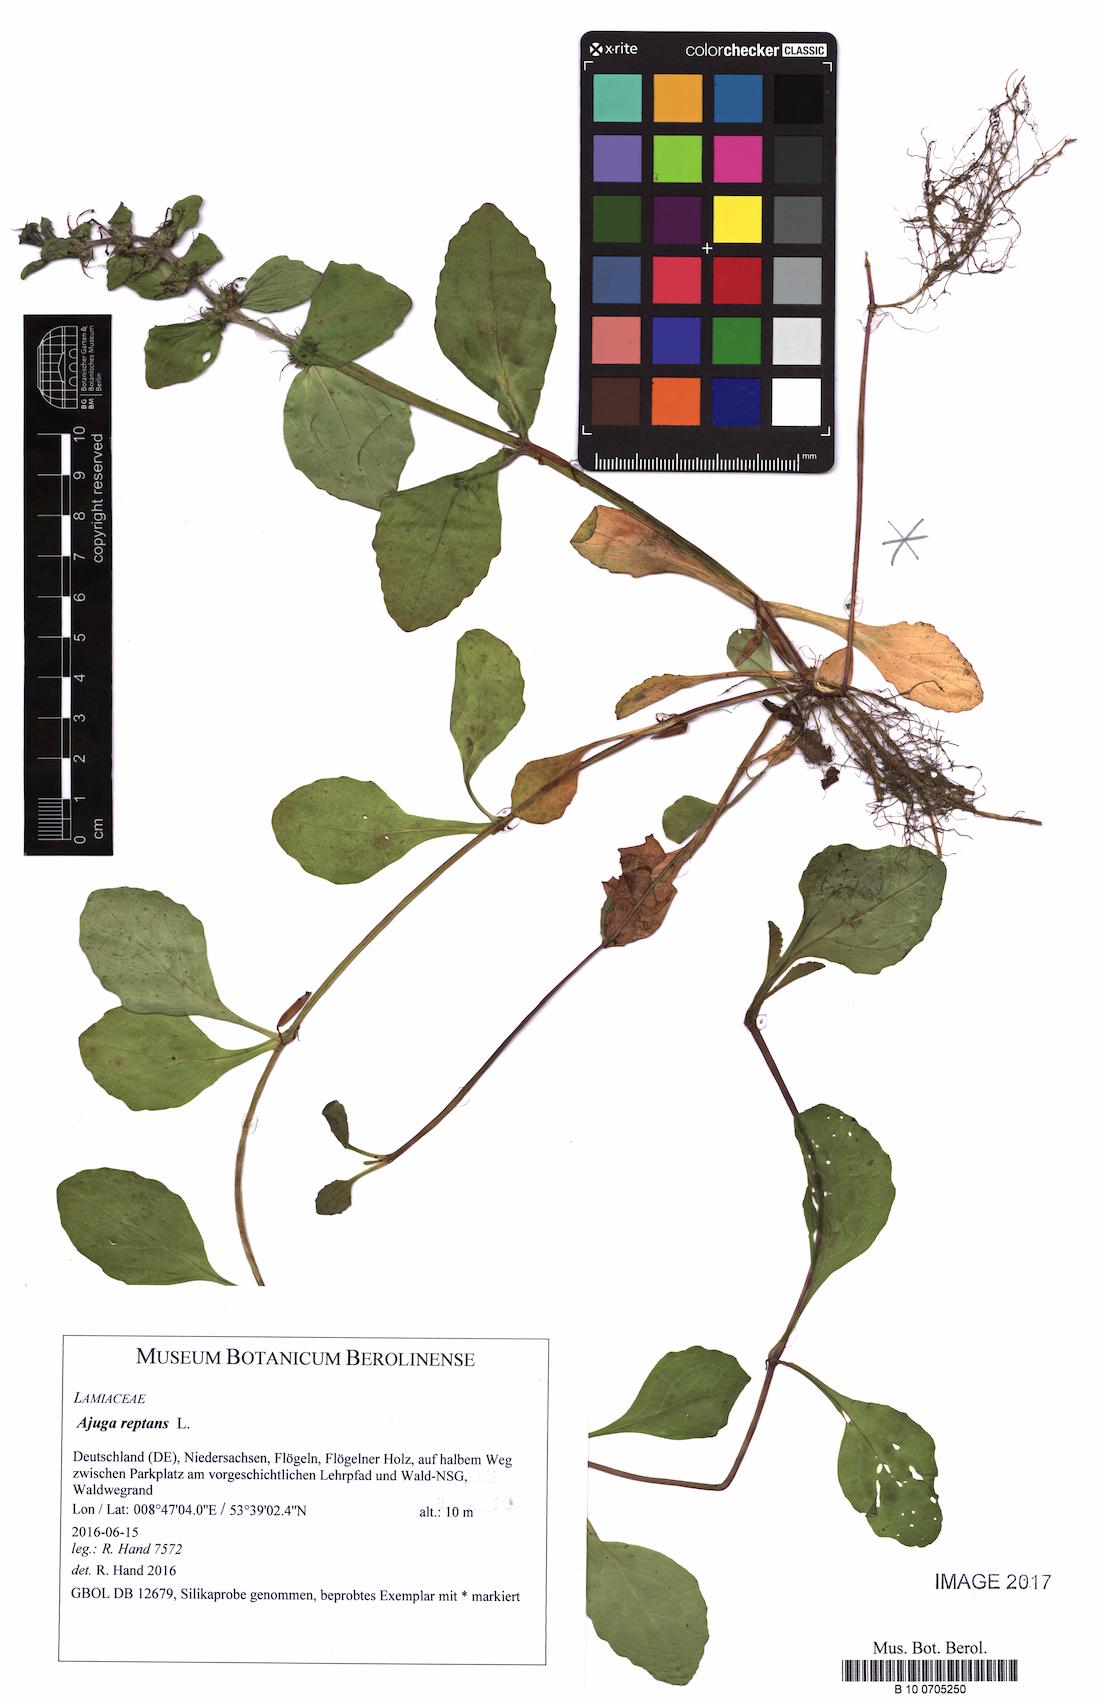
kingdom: Plantae
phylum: Tracheophyta
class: Magnoliopsida
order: Lamiales
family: Lamiaceae
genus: Ajuga
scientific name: Ajuga reptans
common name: Bugle
